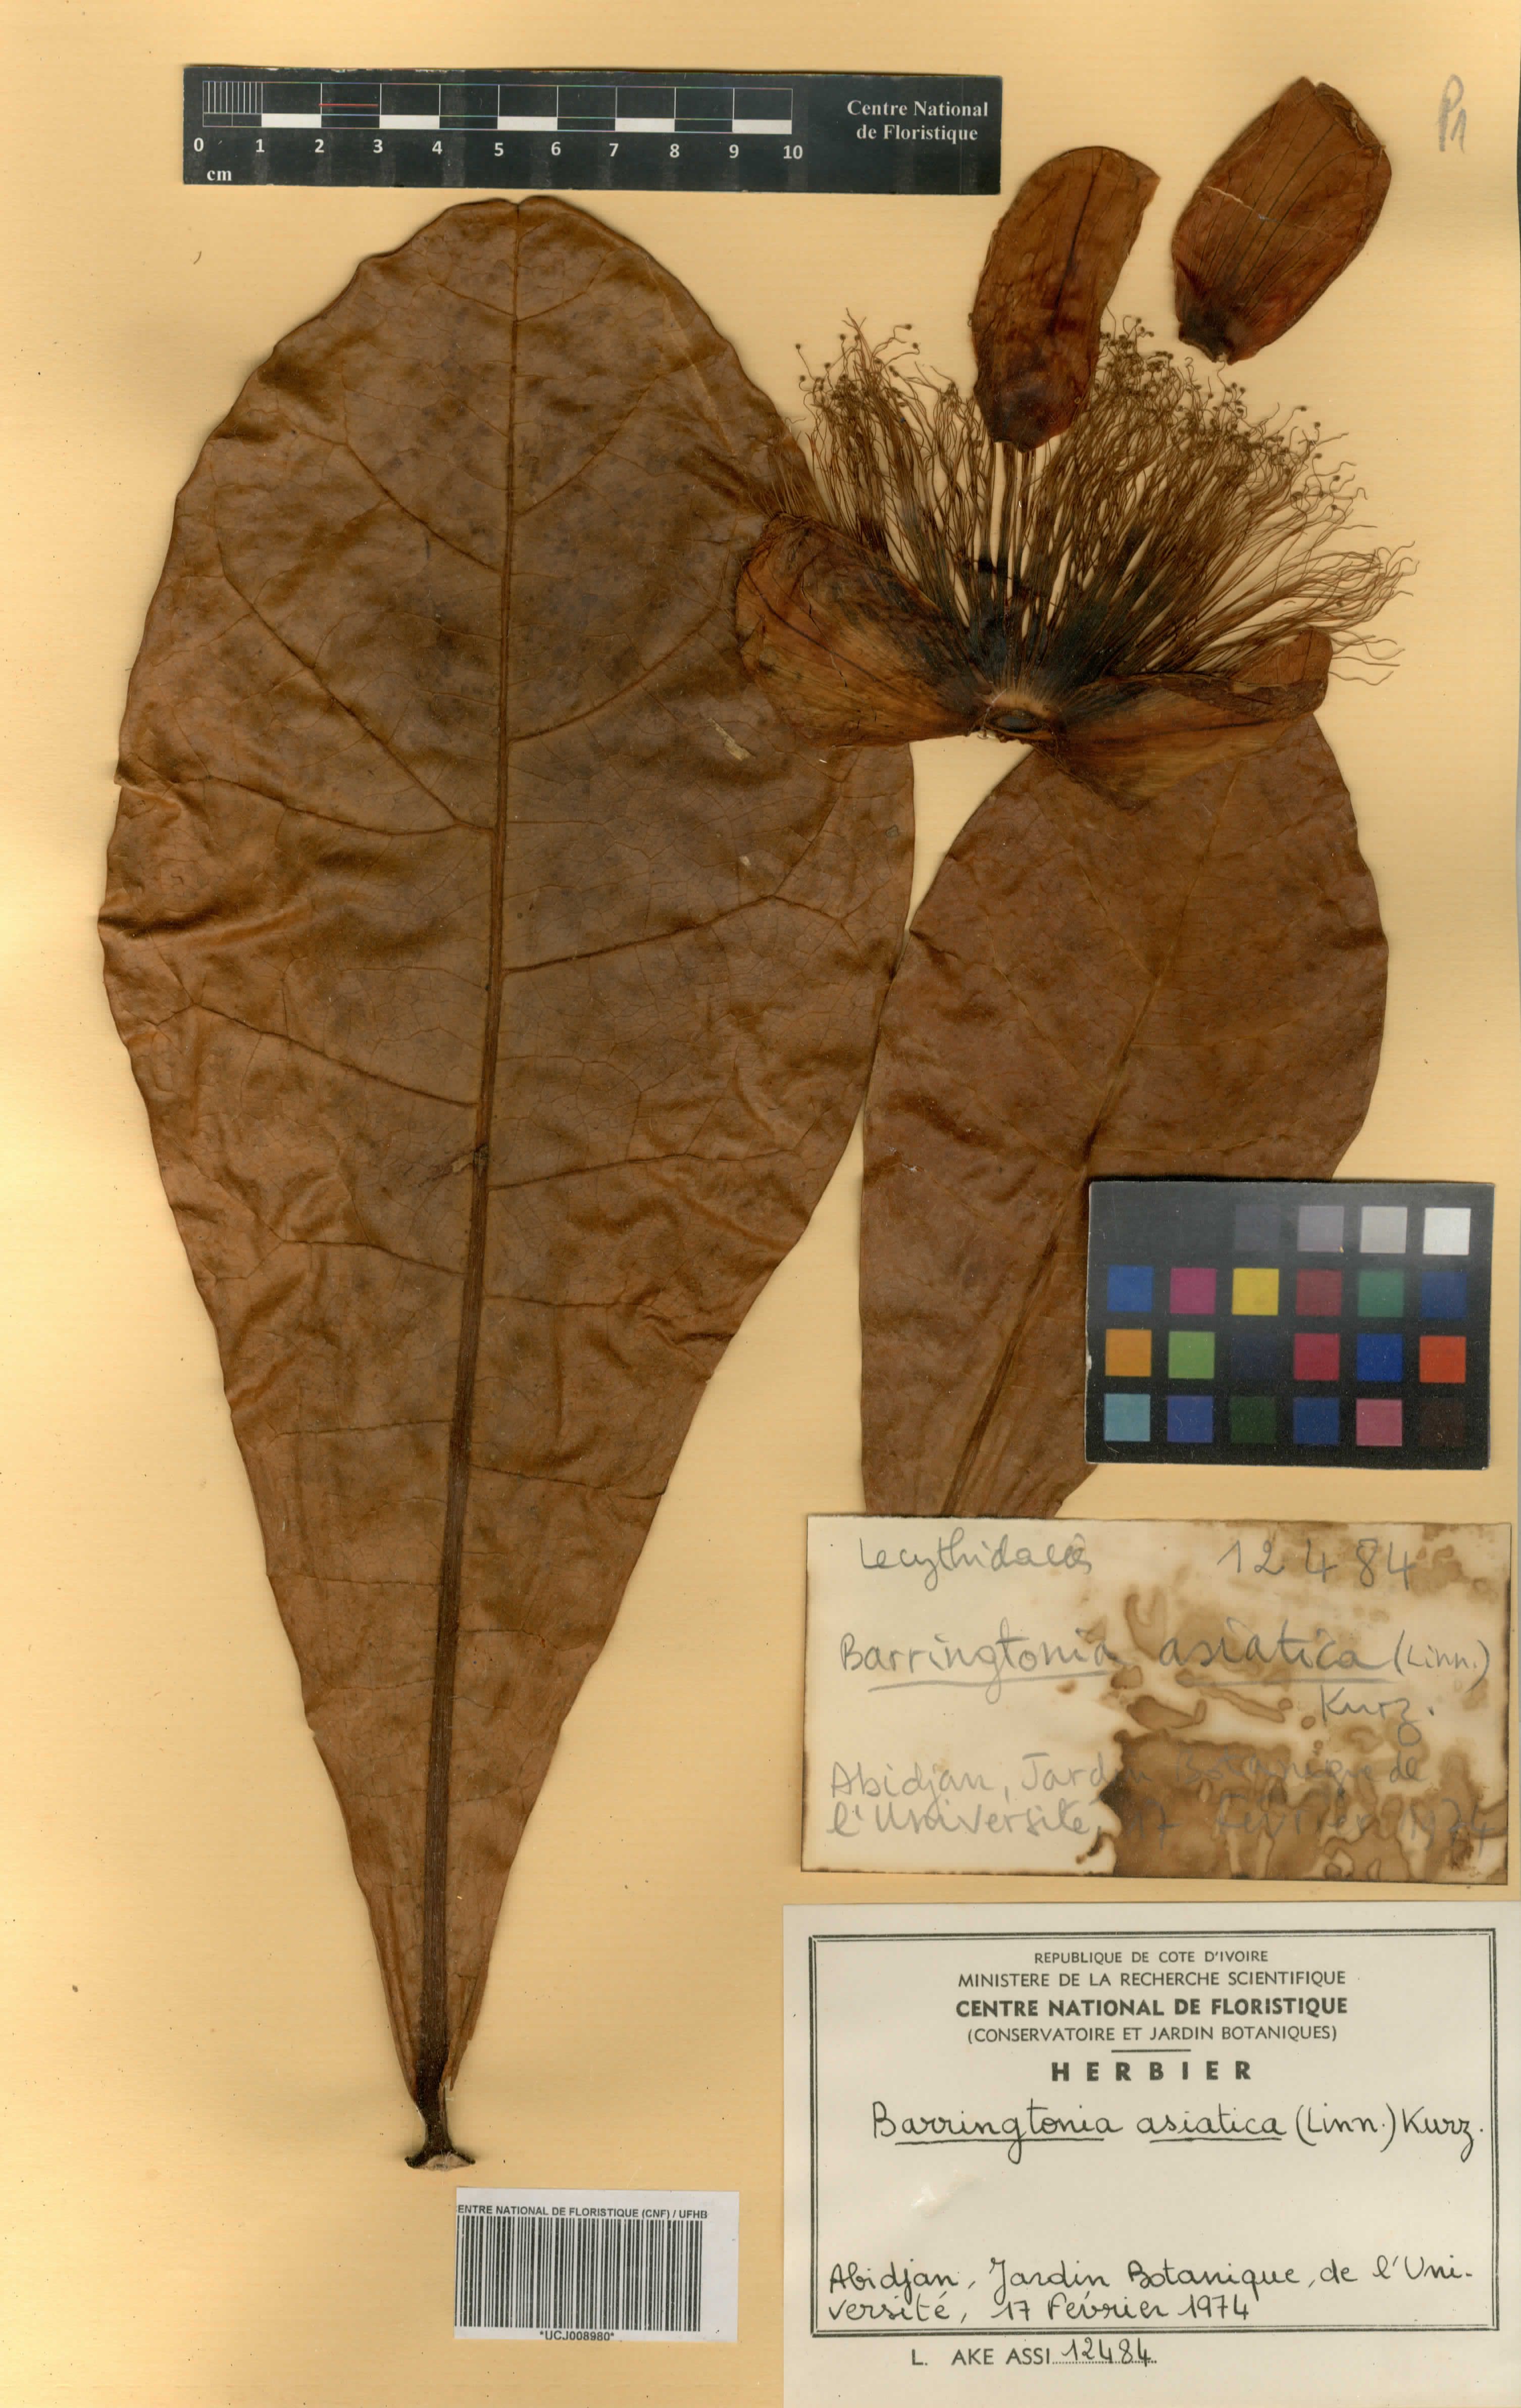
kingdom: Plantae
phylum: Tracheophyta
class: Magnoliopsida
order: Ericales
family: Lecythidaceae
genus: Barringtonia
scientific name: Barringtonia asiatica
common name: Mango-pine
